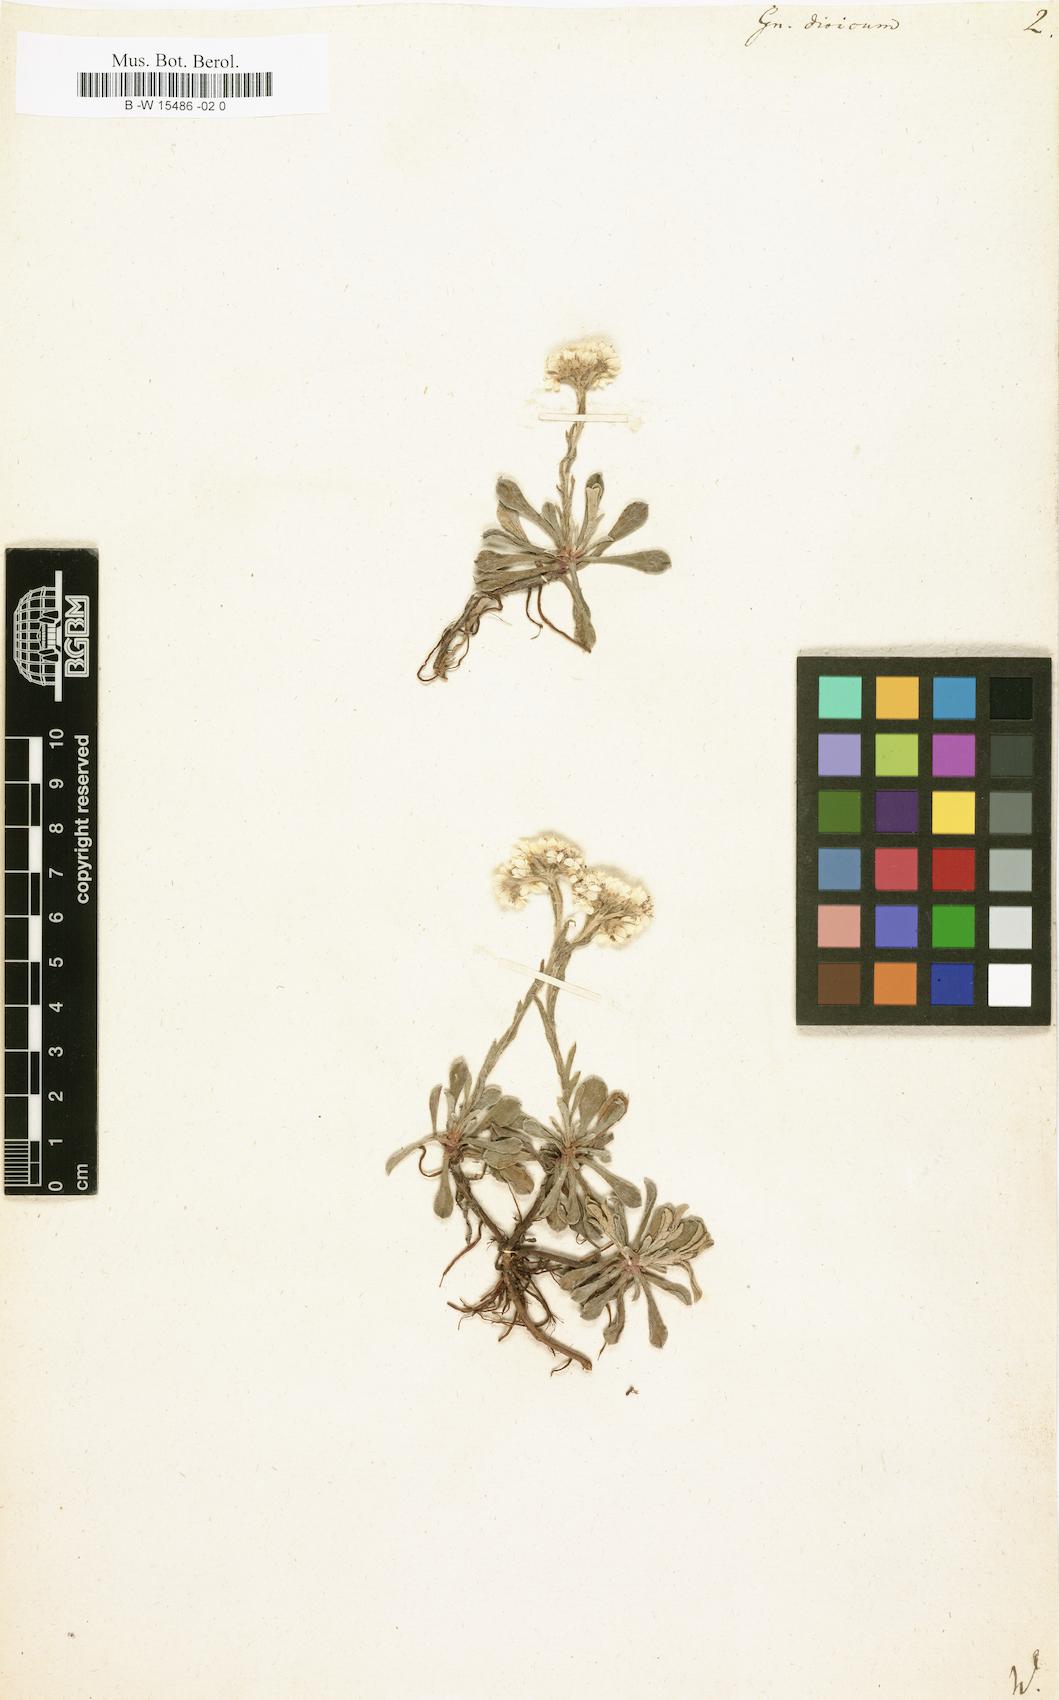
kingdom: Plantae
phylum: Tracheophyta
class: Magnoliopsida
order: Asterales
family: Asteraceae
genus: Antennaria
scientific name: Antennaria dioica
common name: Mountain everlasting
